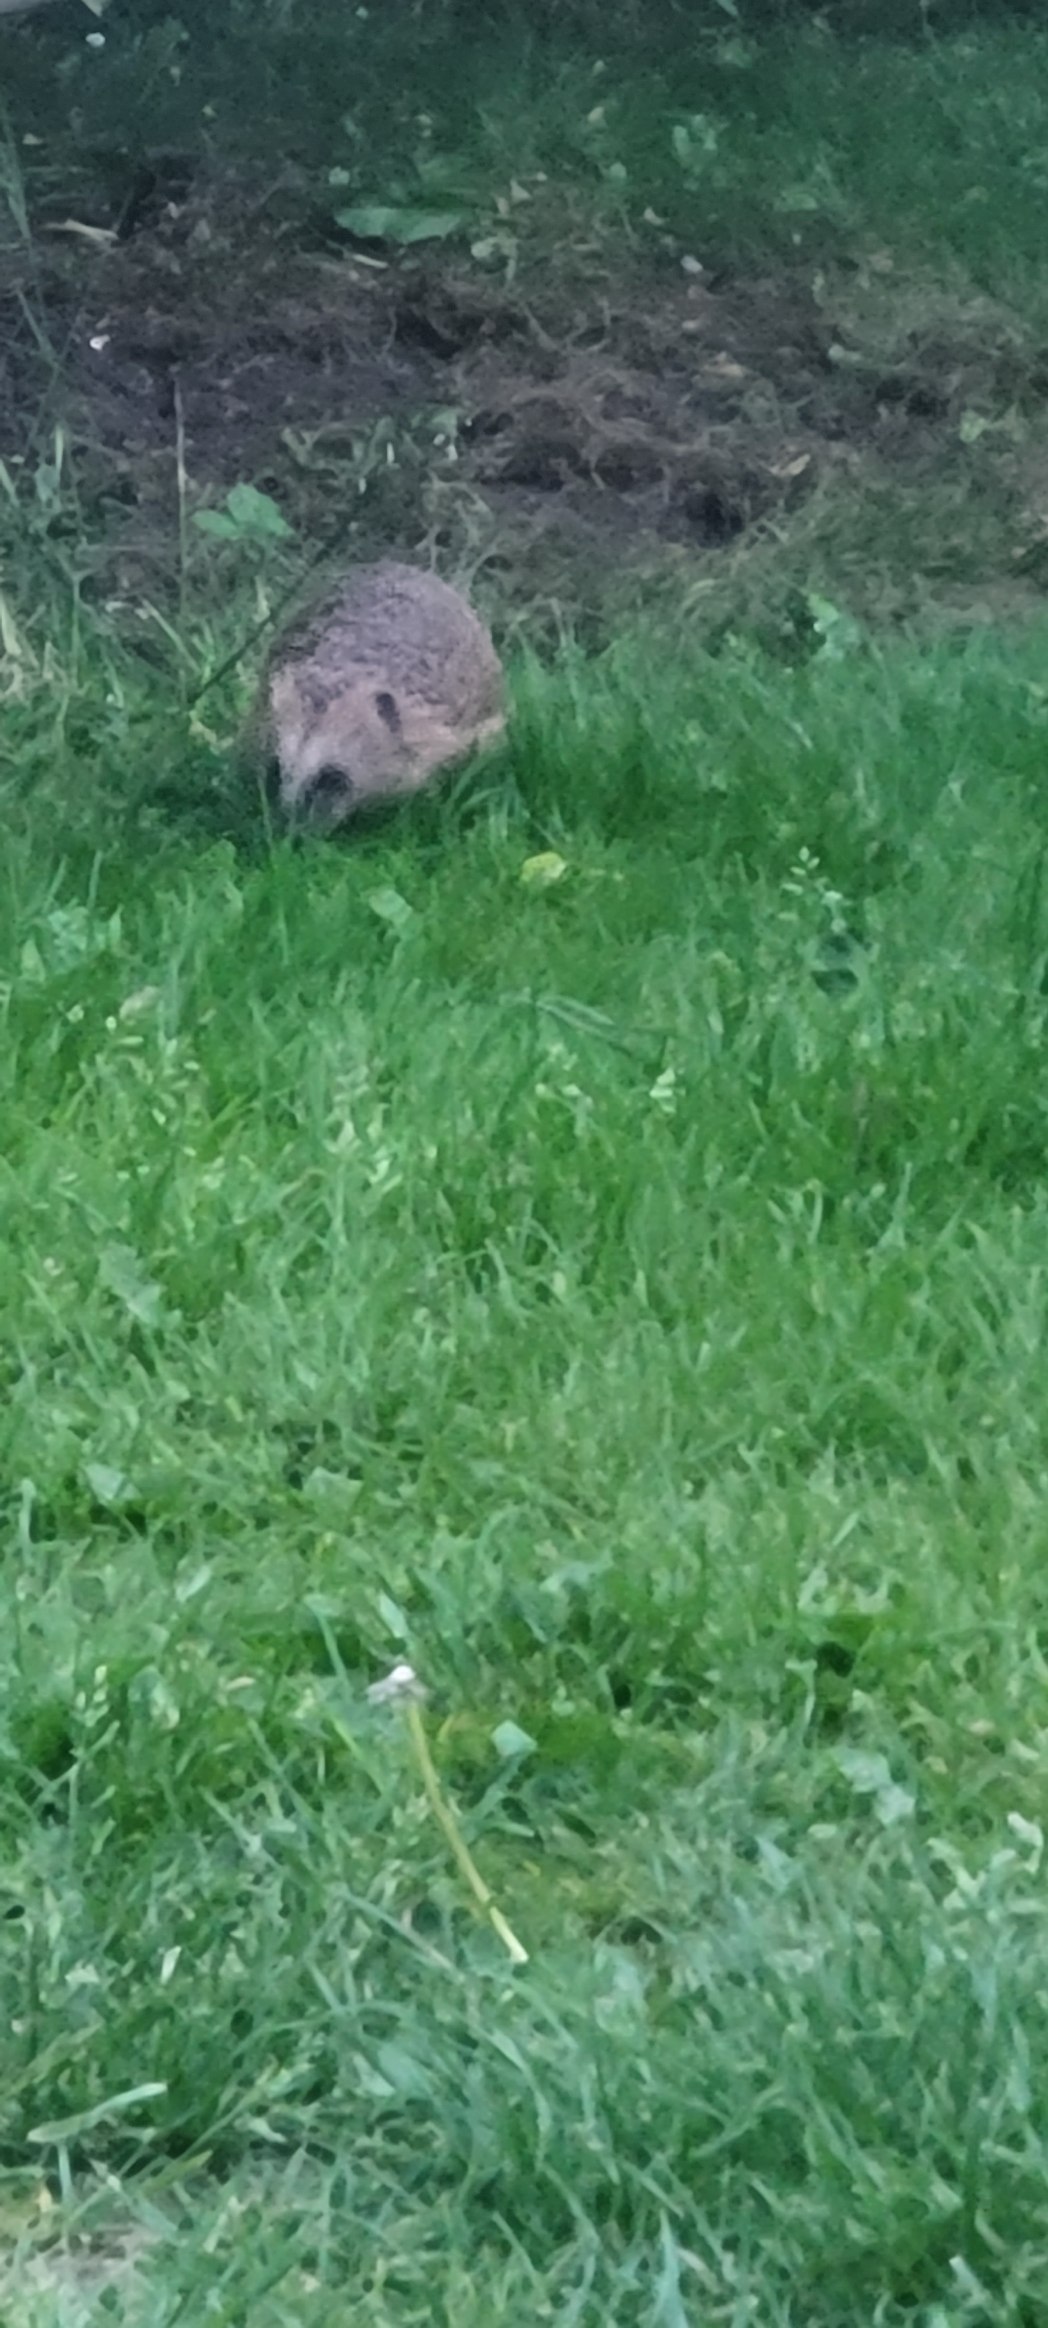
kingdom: Animalia
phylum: Chordata
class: Mammalia
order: Erinaceomorpha
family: Erinaceidae
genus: Erinaceus
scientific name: Erinaceus europaeus
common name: Pindsvin
